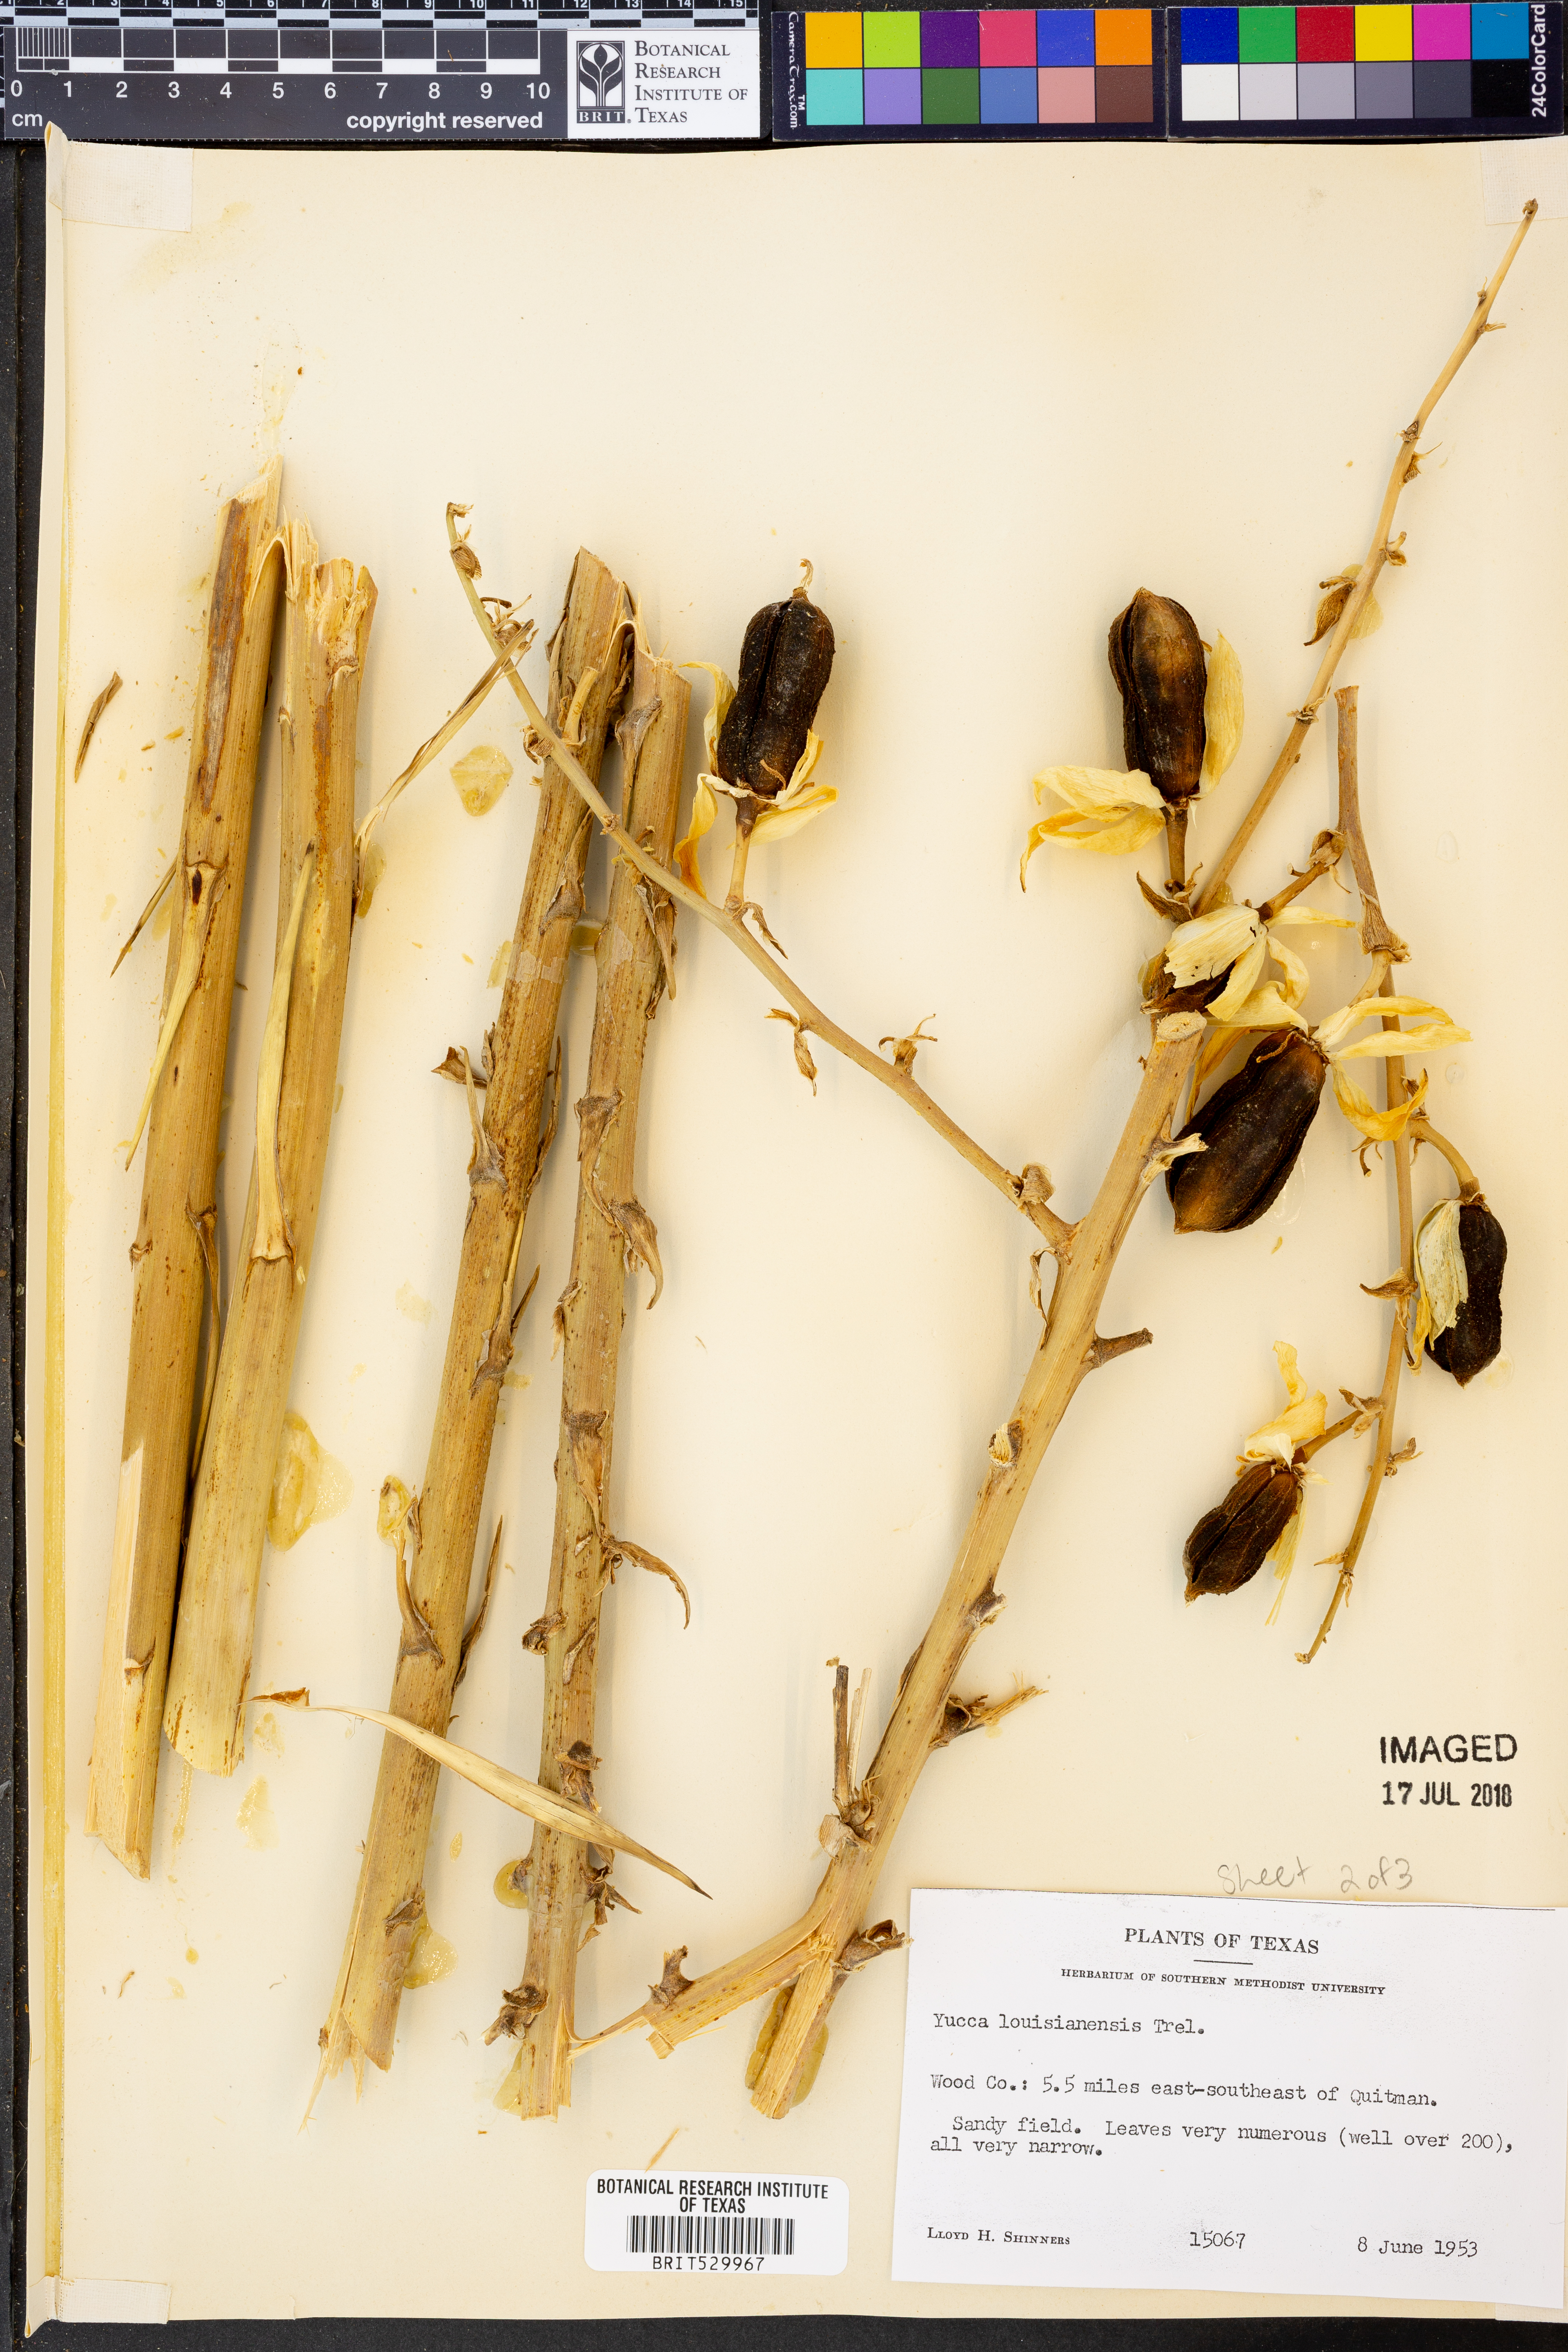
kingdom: Plantae
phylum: Tracheophyta
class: Liliopsida
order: Asparagales
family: Asparagaceae
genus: Yucca
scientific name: Yucca flaccida
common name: Adam's-needle
